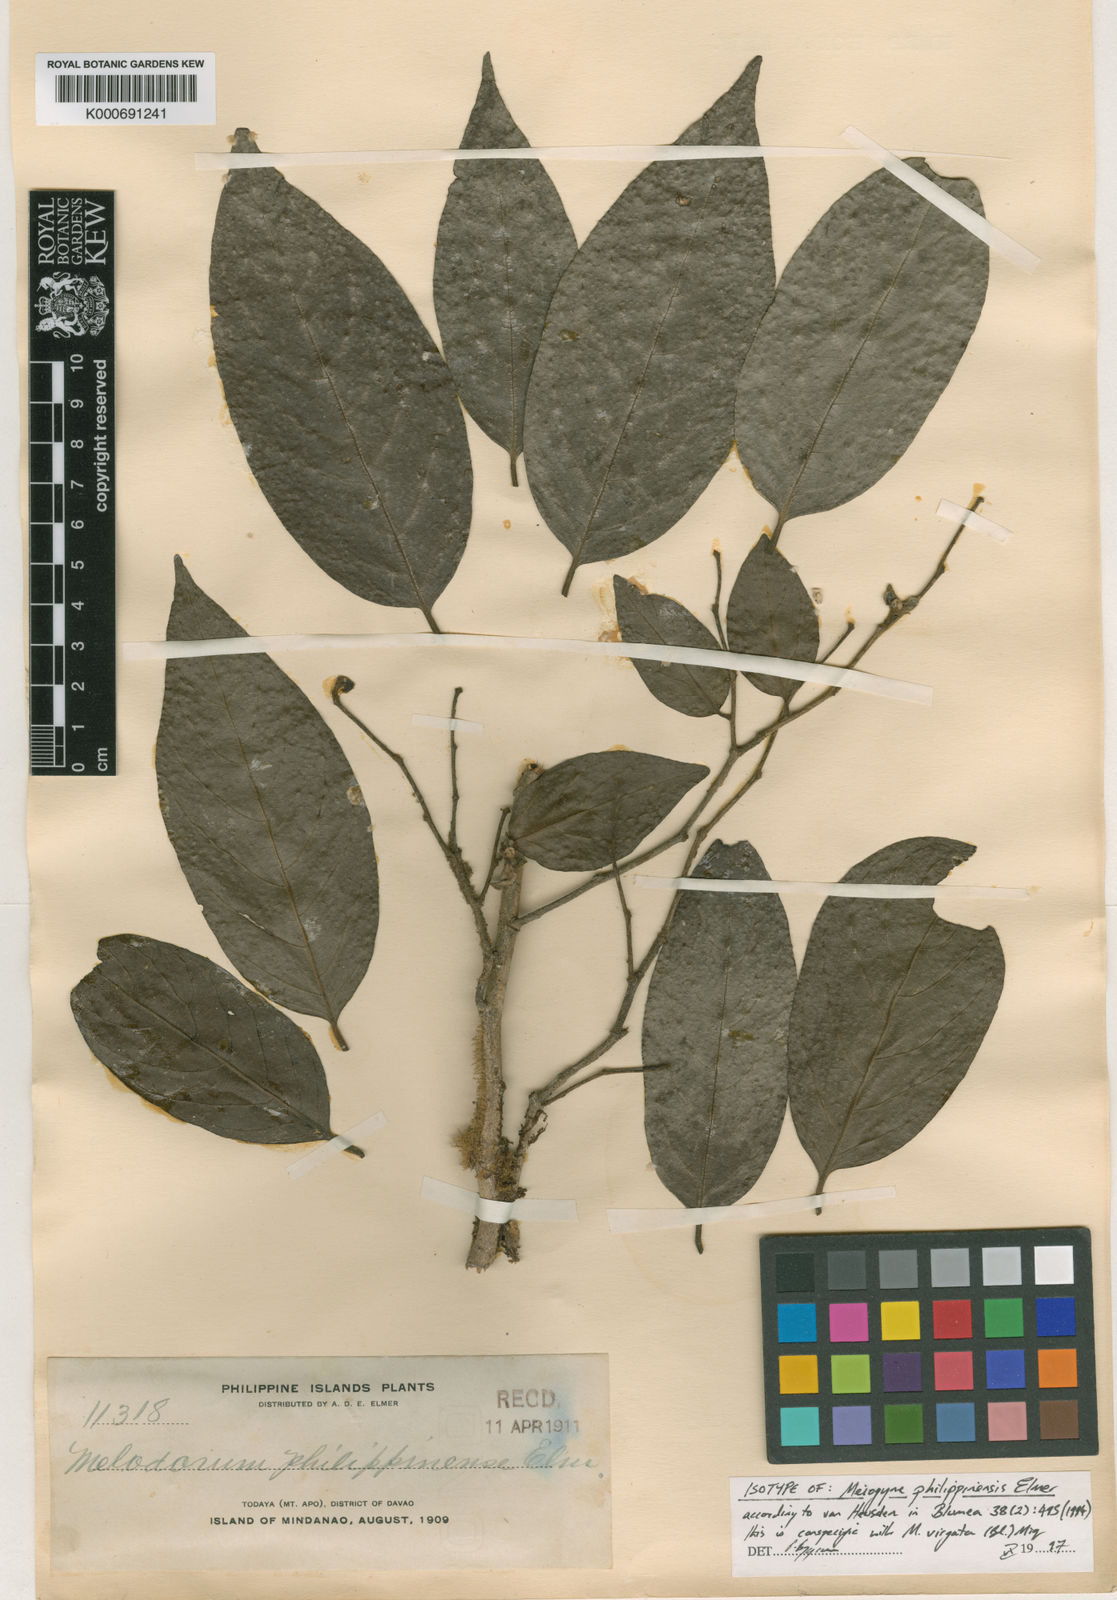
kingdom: Plantae
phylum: Tracheophyta
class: Magnoliopsida
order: Magnoliales
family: Annonaceae
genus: Meiogyne
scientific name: Meiogyne virgata
